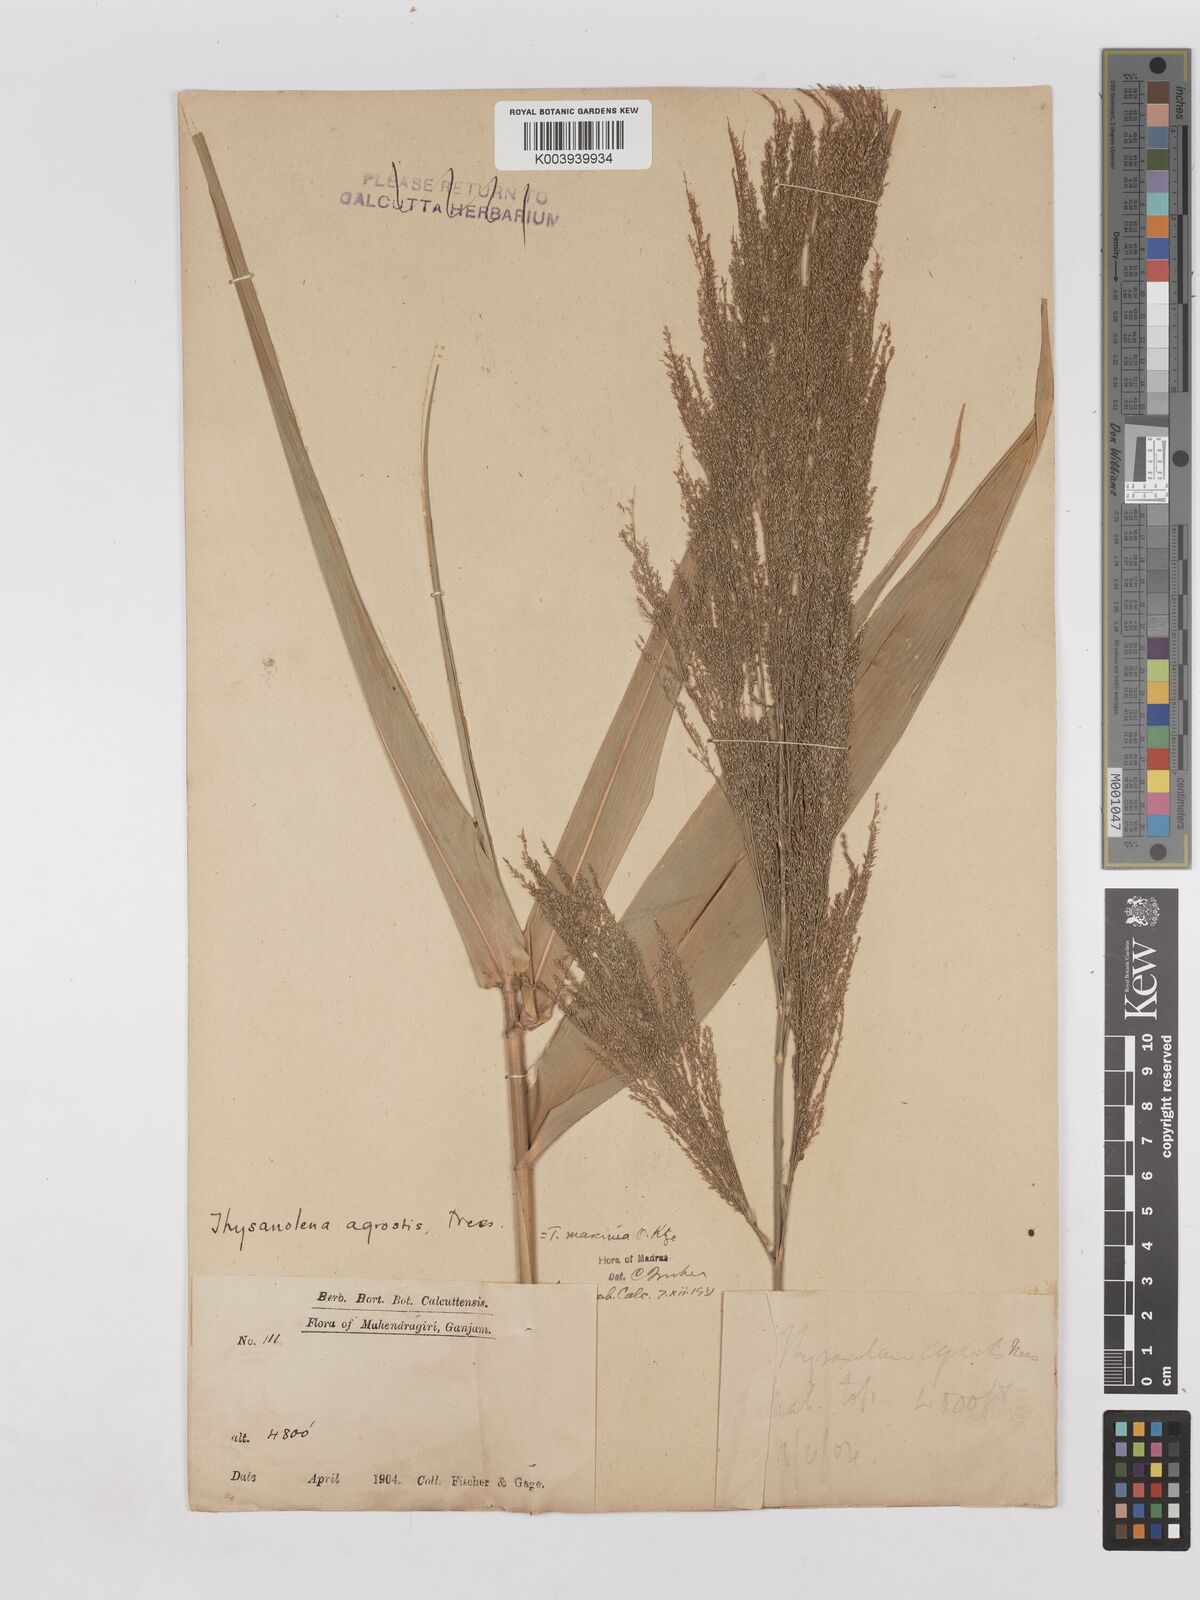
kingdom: Plantae
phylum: Tracheophyta
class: Liliopsida
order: Poales
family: Poaceae
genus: Thysanolaena
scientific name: Thysanolaena latifolia
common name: Tiger grass
